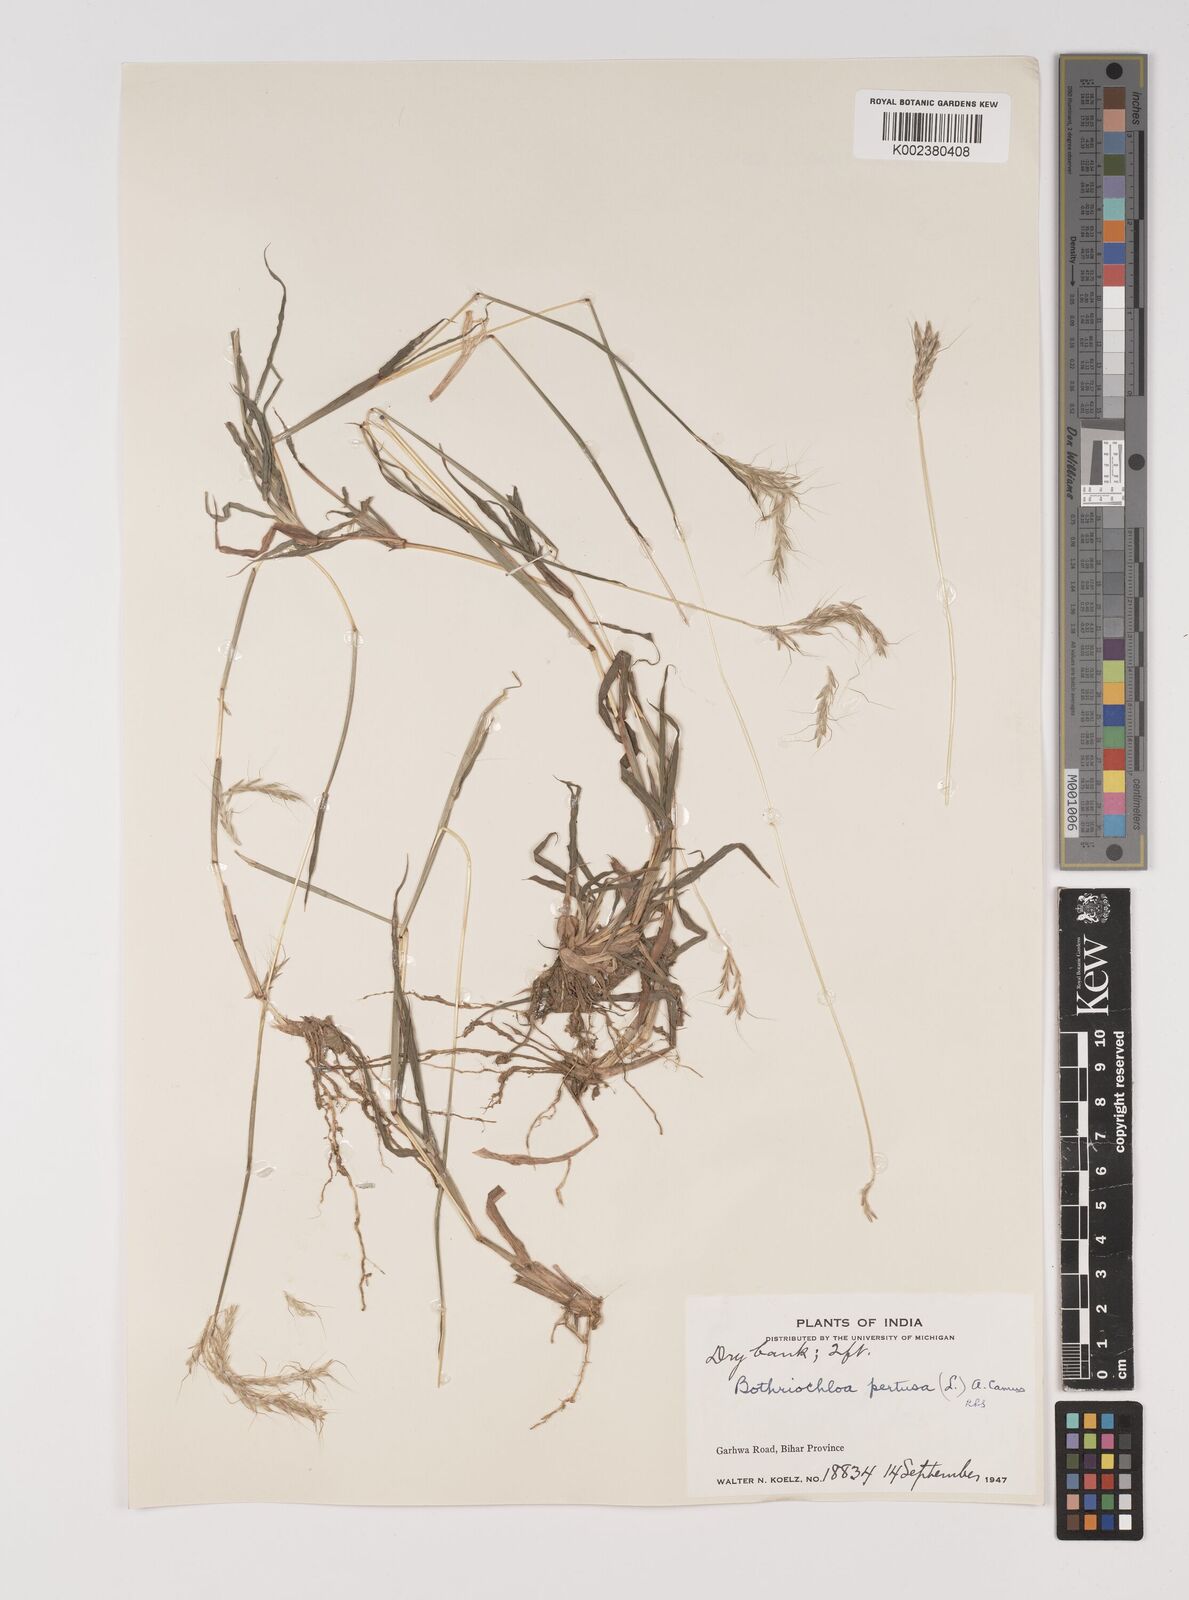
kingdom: Plantae
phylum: Tracheophyta
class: Liliopsida
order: Poales
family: Poaceae
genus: Bothriochloa
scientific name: Bothriochloa pertusa
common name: Pitted beardgrass
